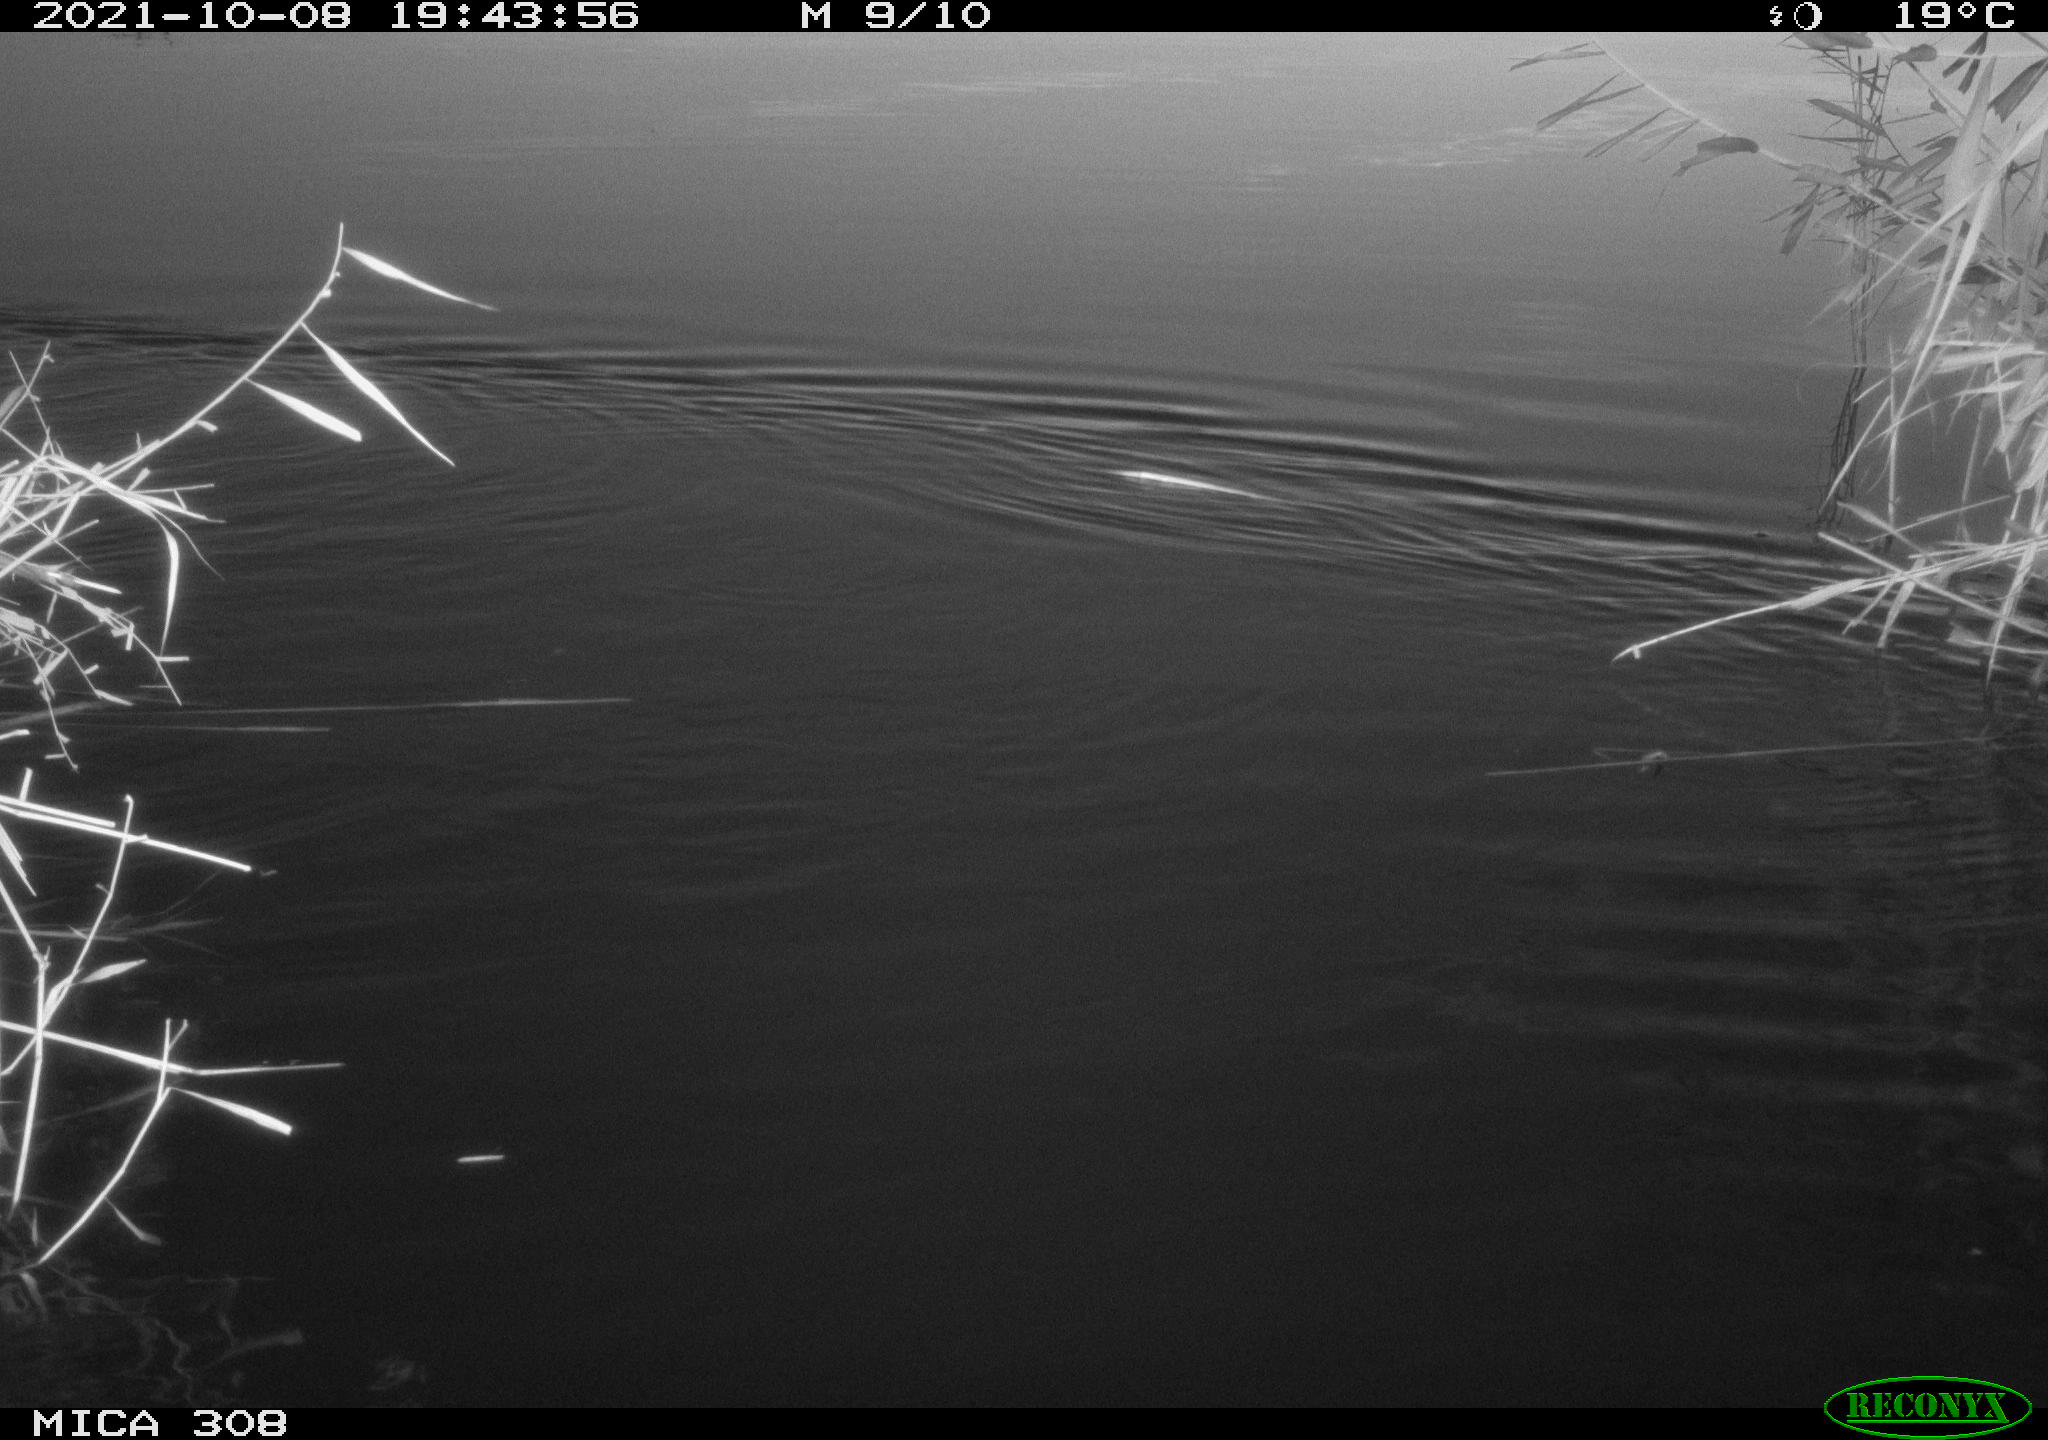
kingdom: Animalia
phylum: Chordata
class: Mammalia
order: Rodentia
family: Cricetidae
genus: Ondatra
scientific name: Ondatra zibethicus
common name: Muskrat
